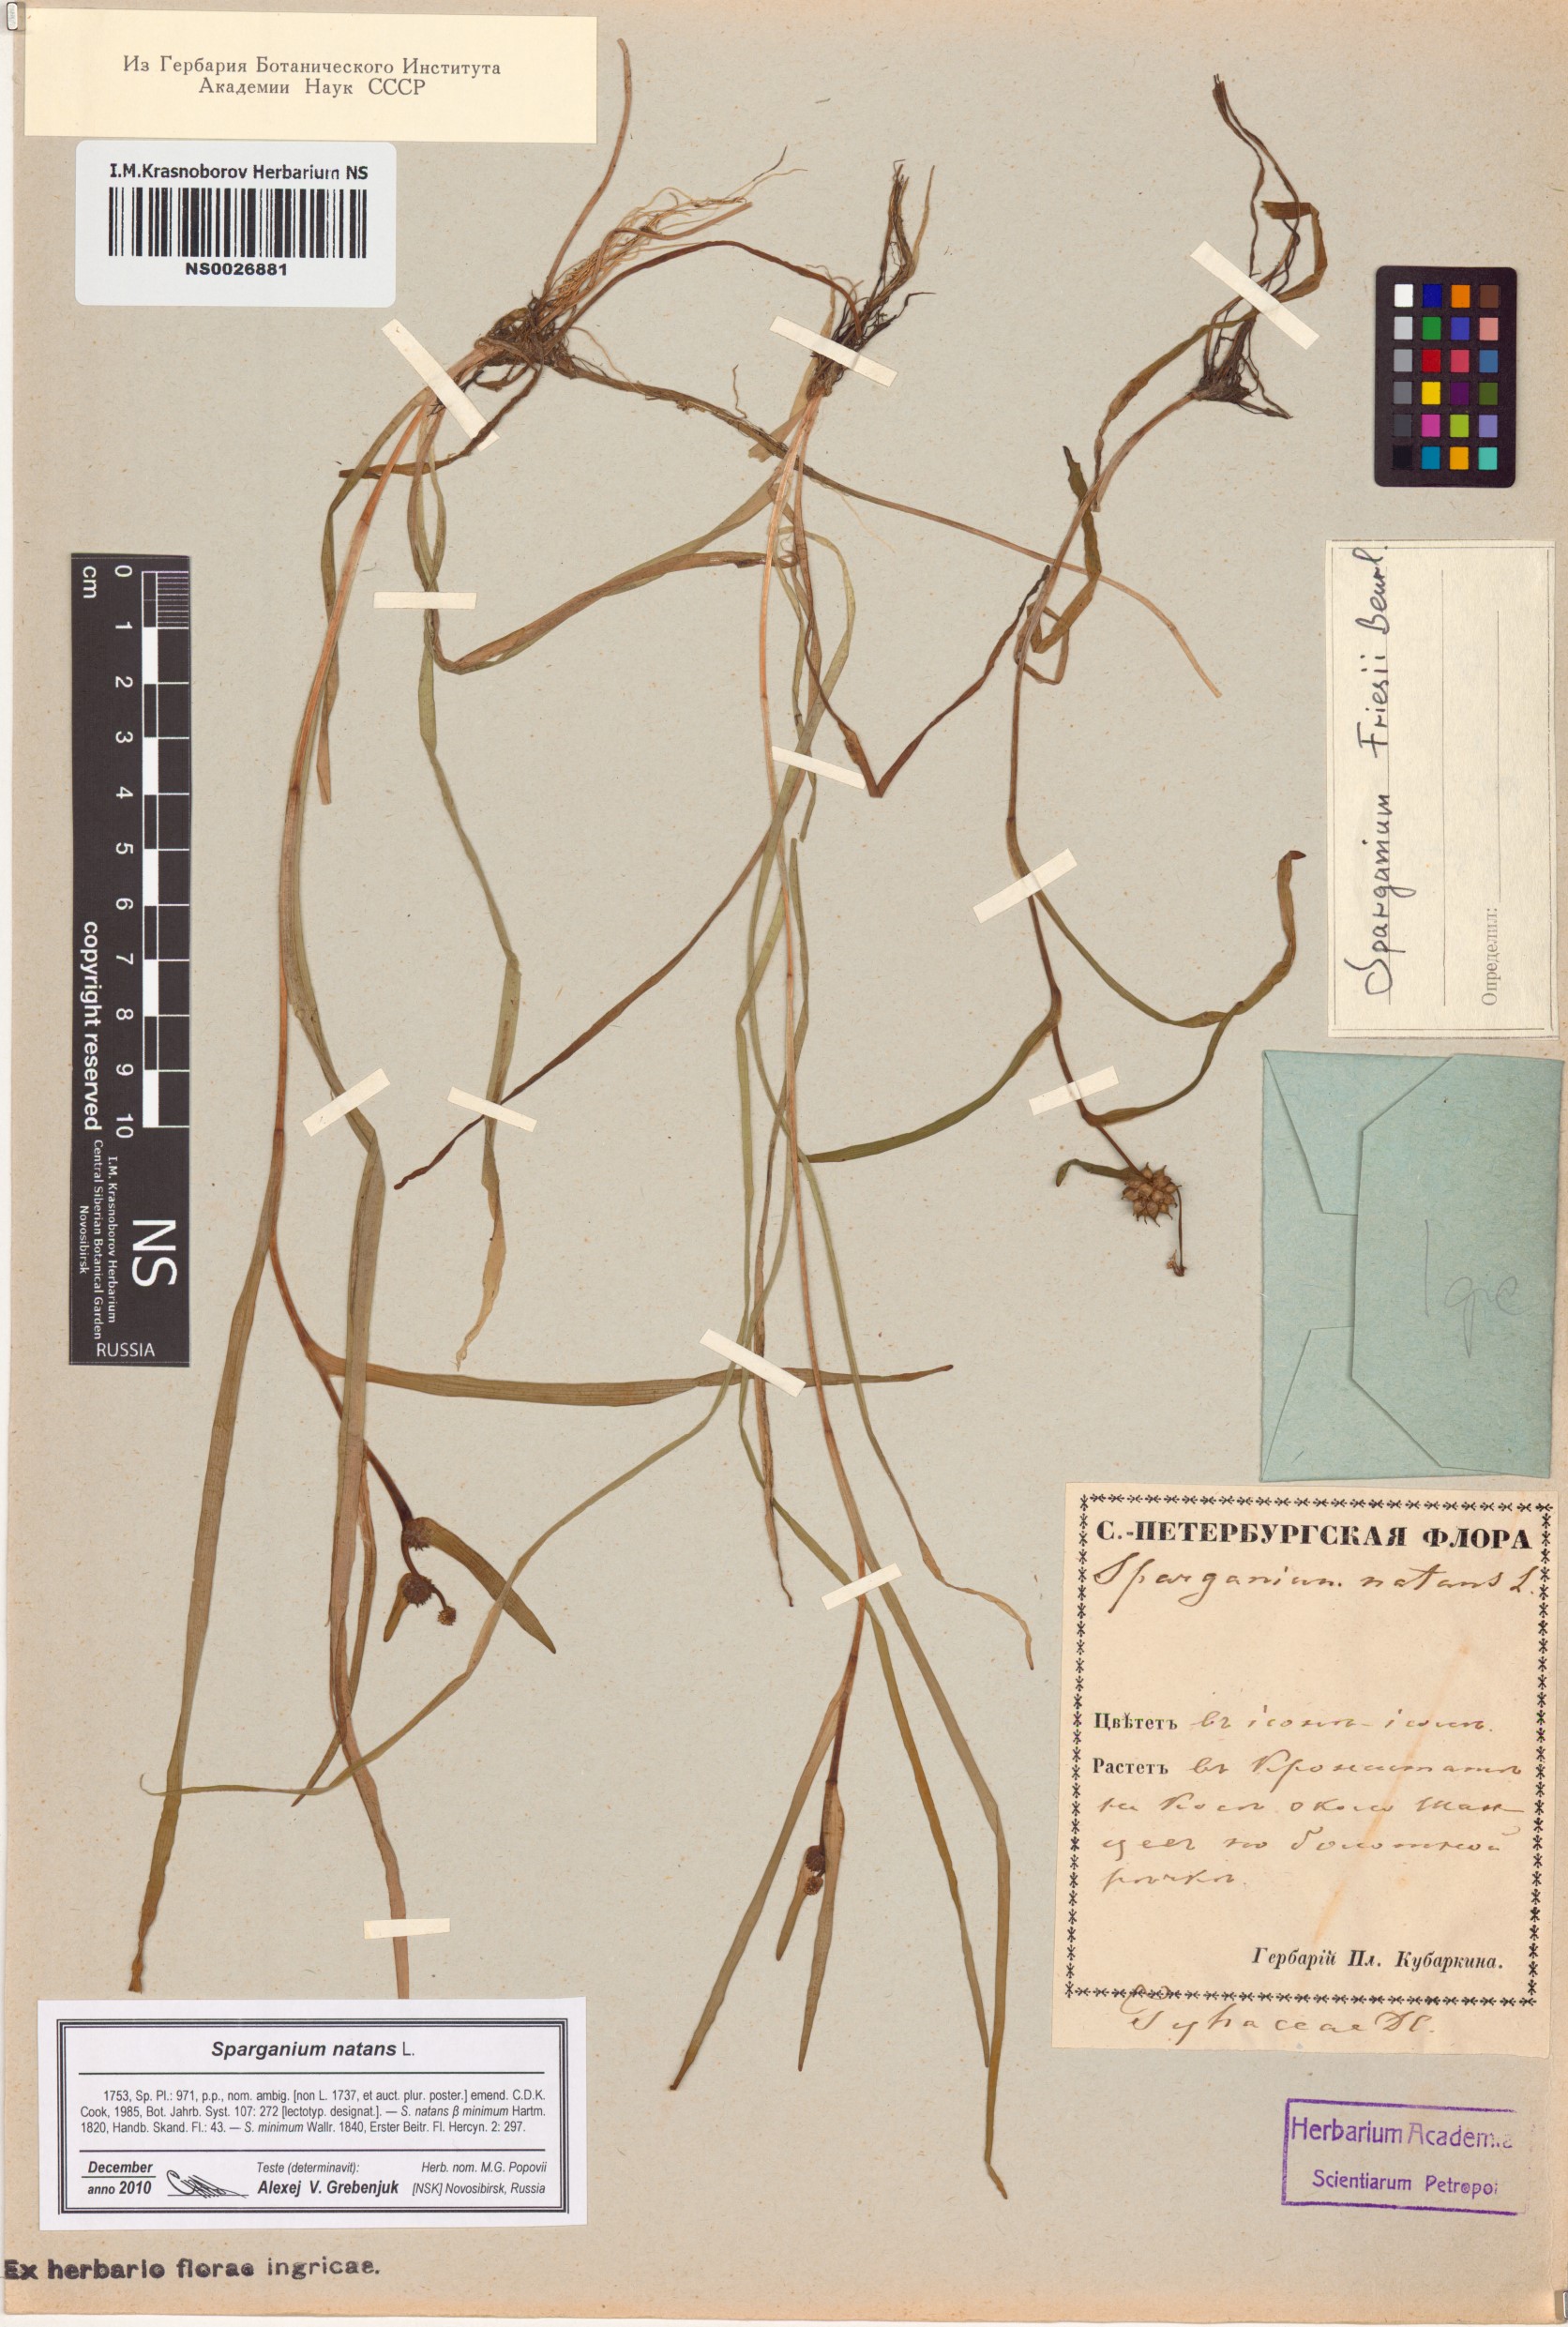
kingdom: Plantae
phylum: Tracheophyta
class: Liliopsida
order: Poales
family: Typhaceae
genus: Sparganium
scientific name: Sparganium natans
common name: Least bur-reed
